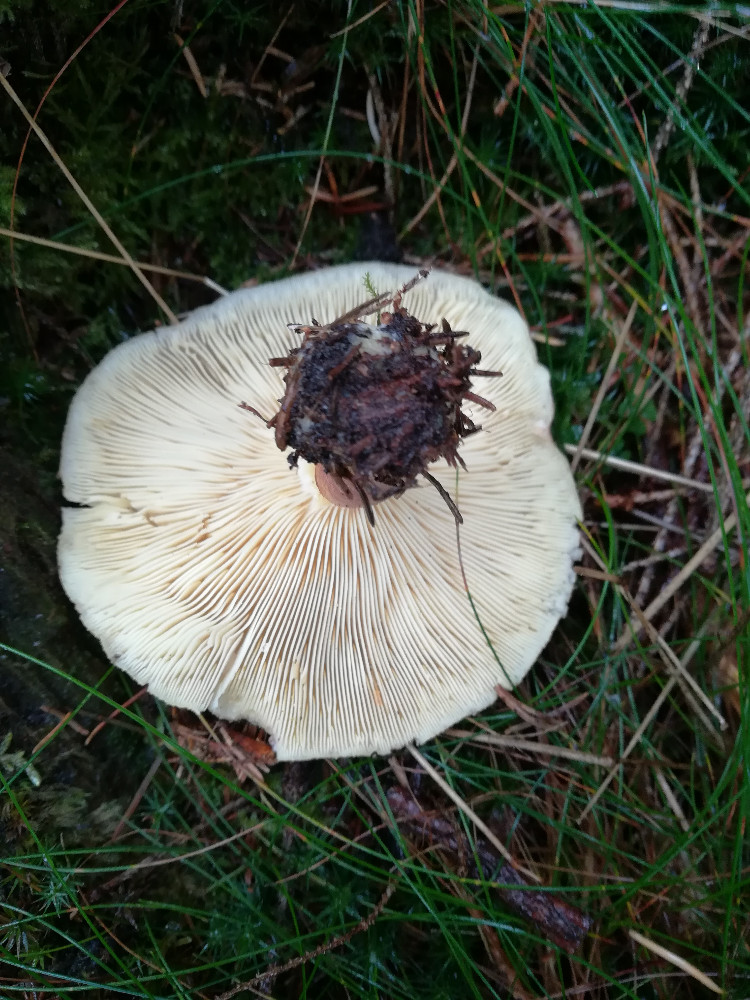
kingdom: Fungi
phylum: Basidiomycota
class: Agaricomycetes
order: Agaricales
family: Tricholomataceae
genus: Tricholomopsis
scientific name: Tricholomopsis rutilans
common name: purpur-væbnerhat
